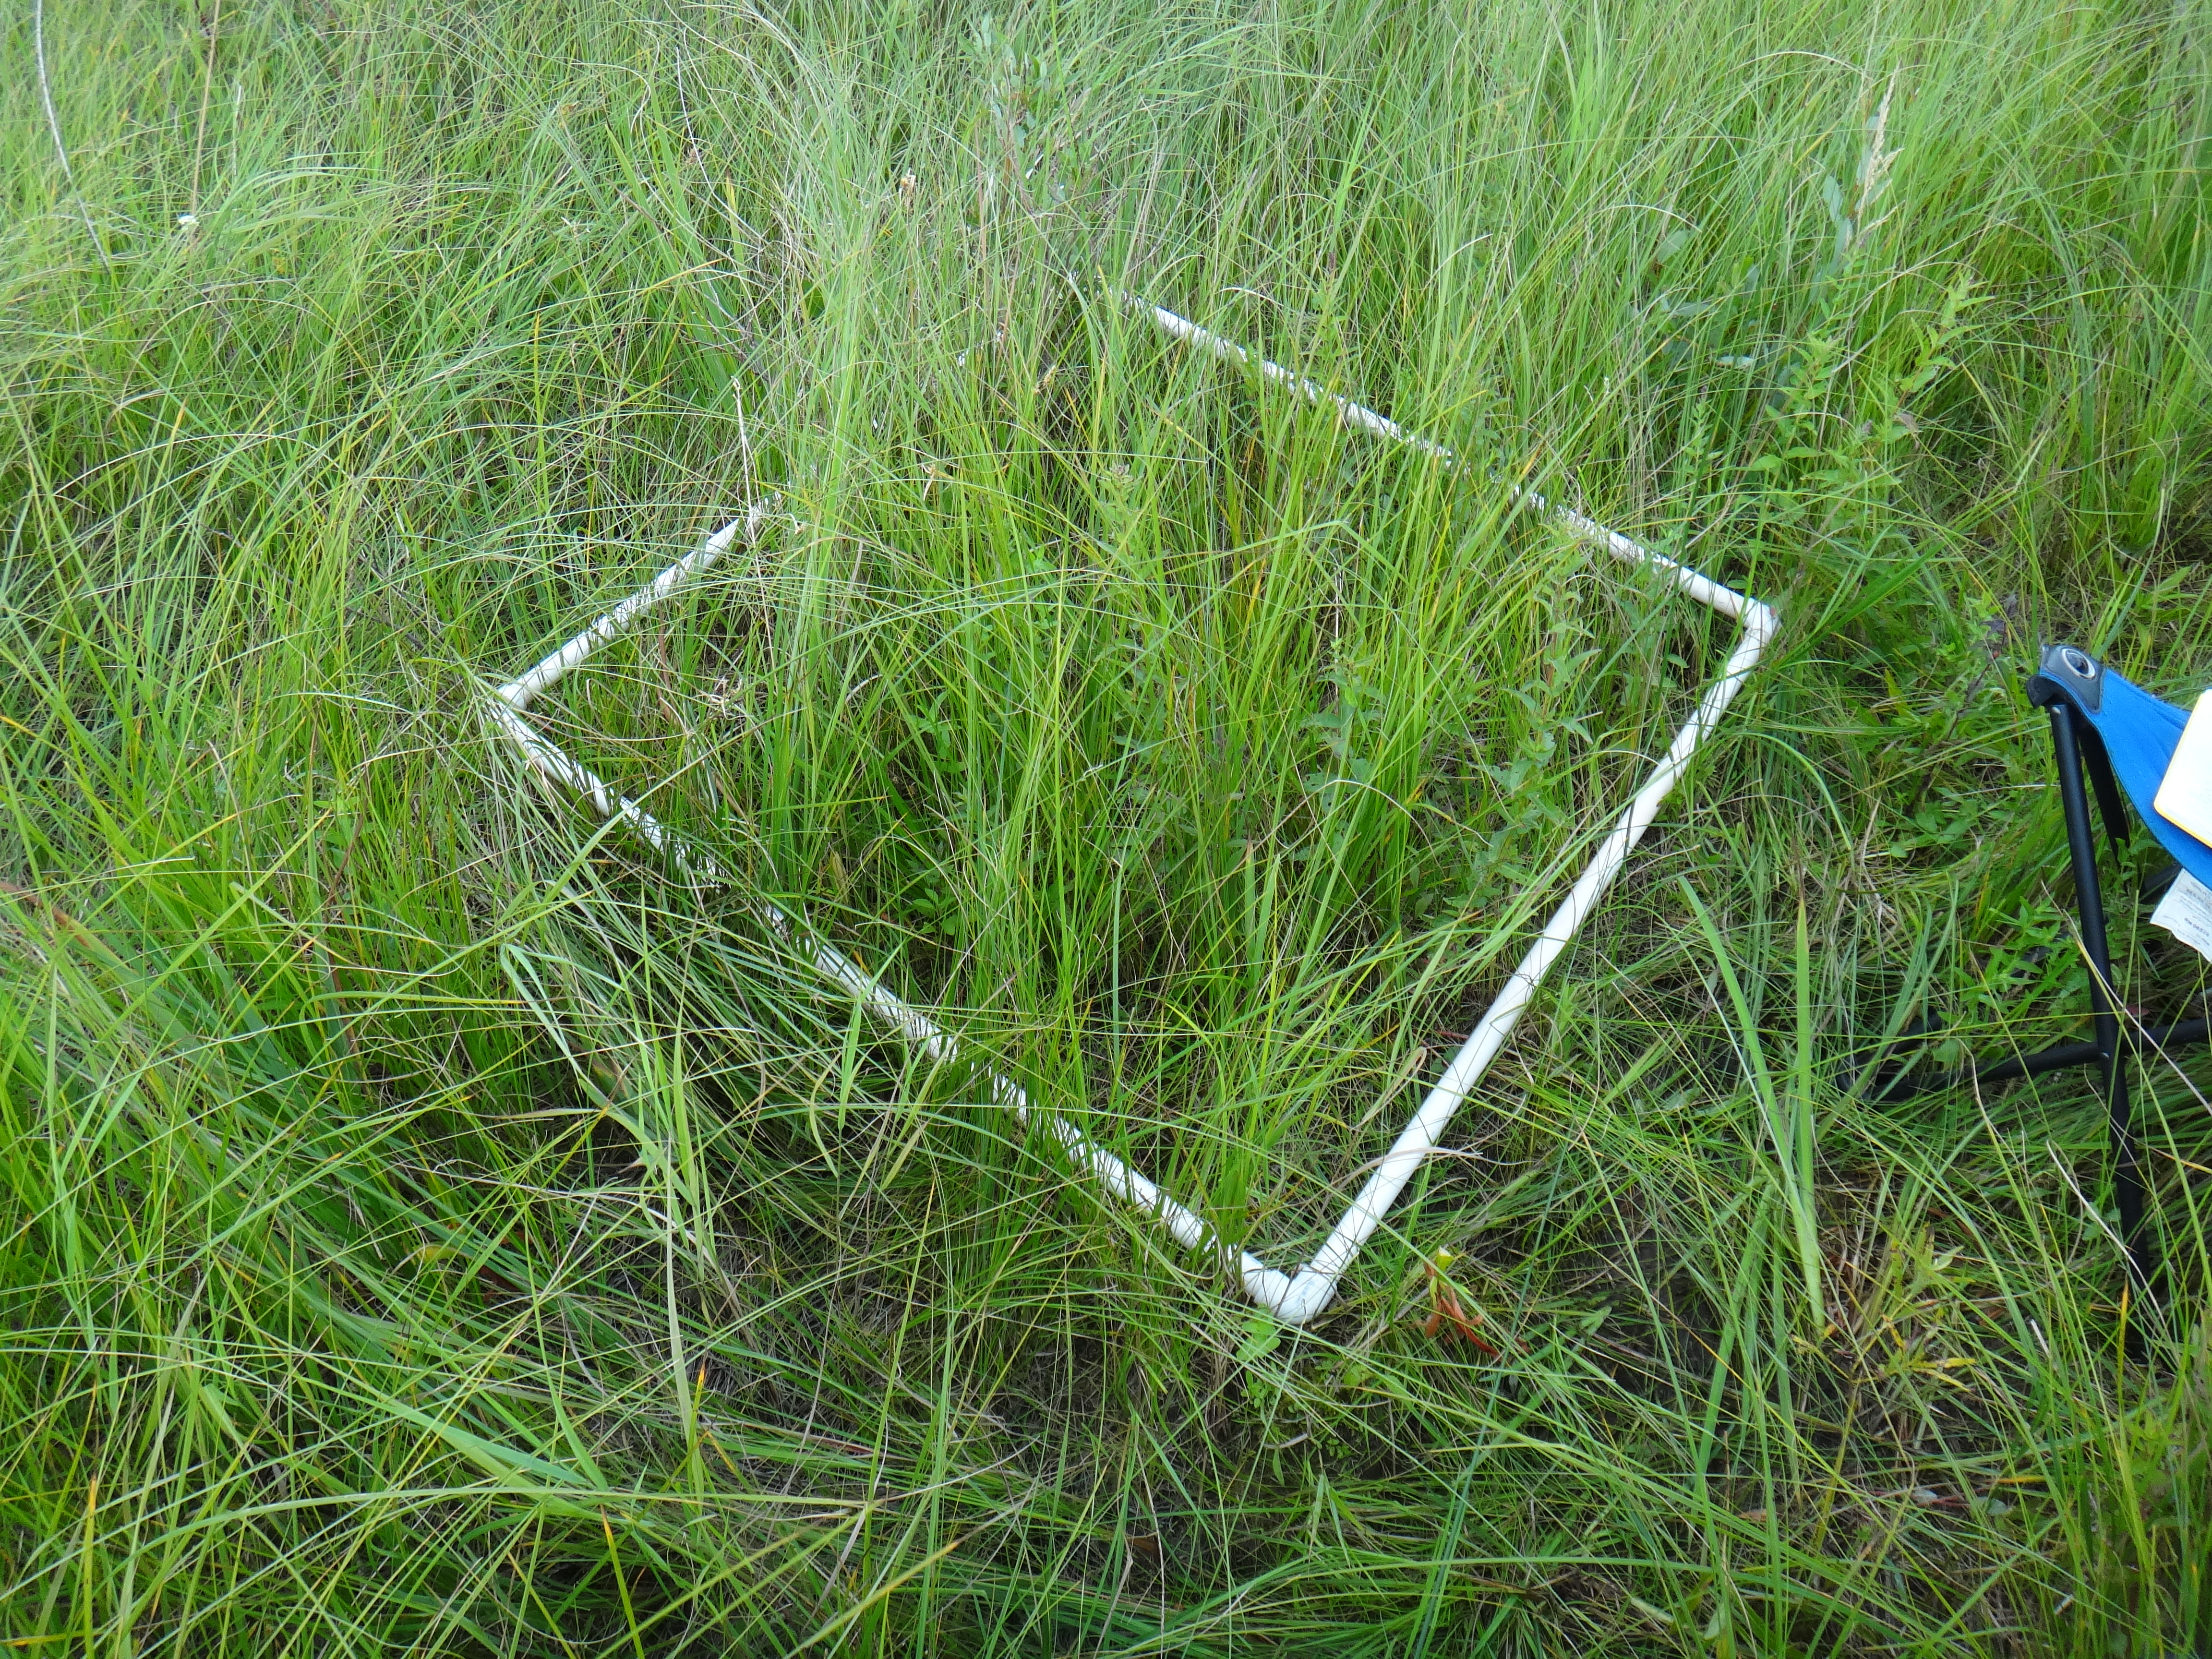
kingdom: Plantae
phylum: Tracheophyta
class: Liliopsida
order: Poales
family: Poaceae
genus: Agrostis
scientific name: Agrostis gigantea
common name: Black bent
